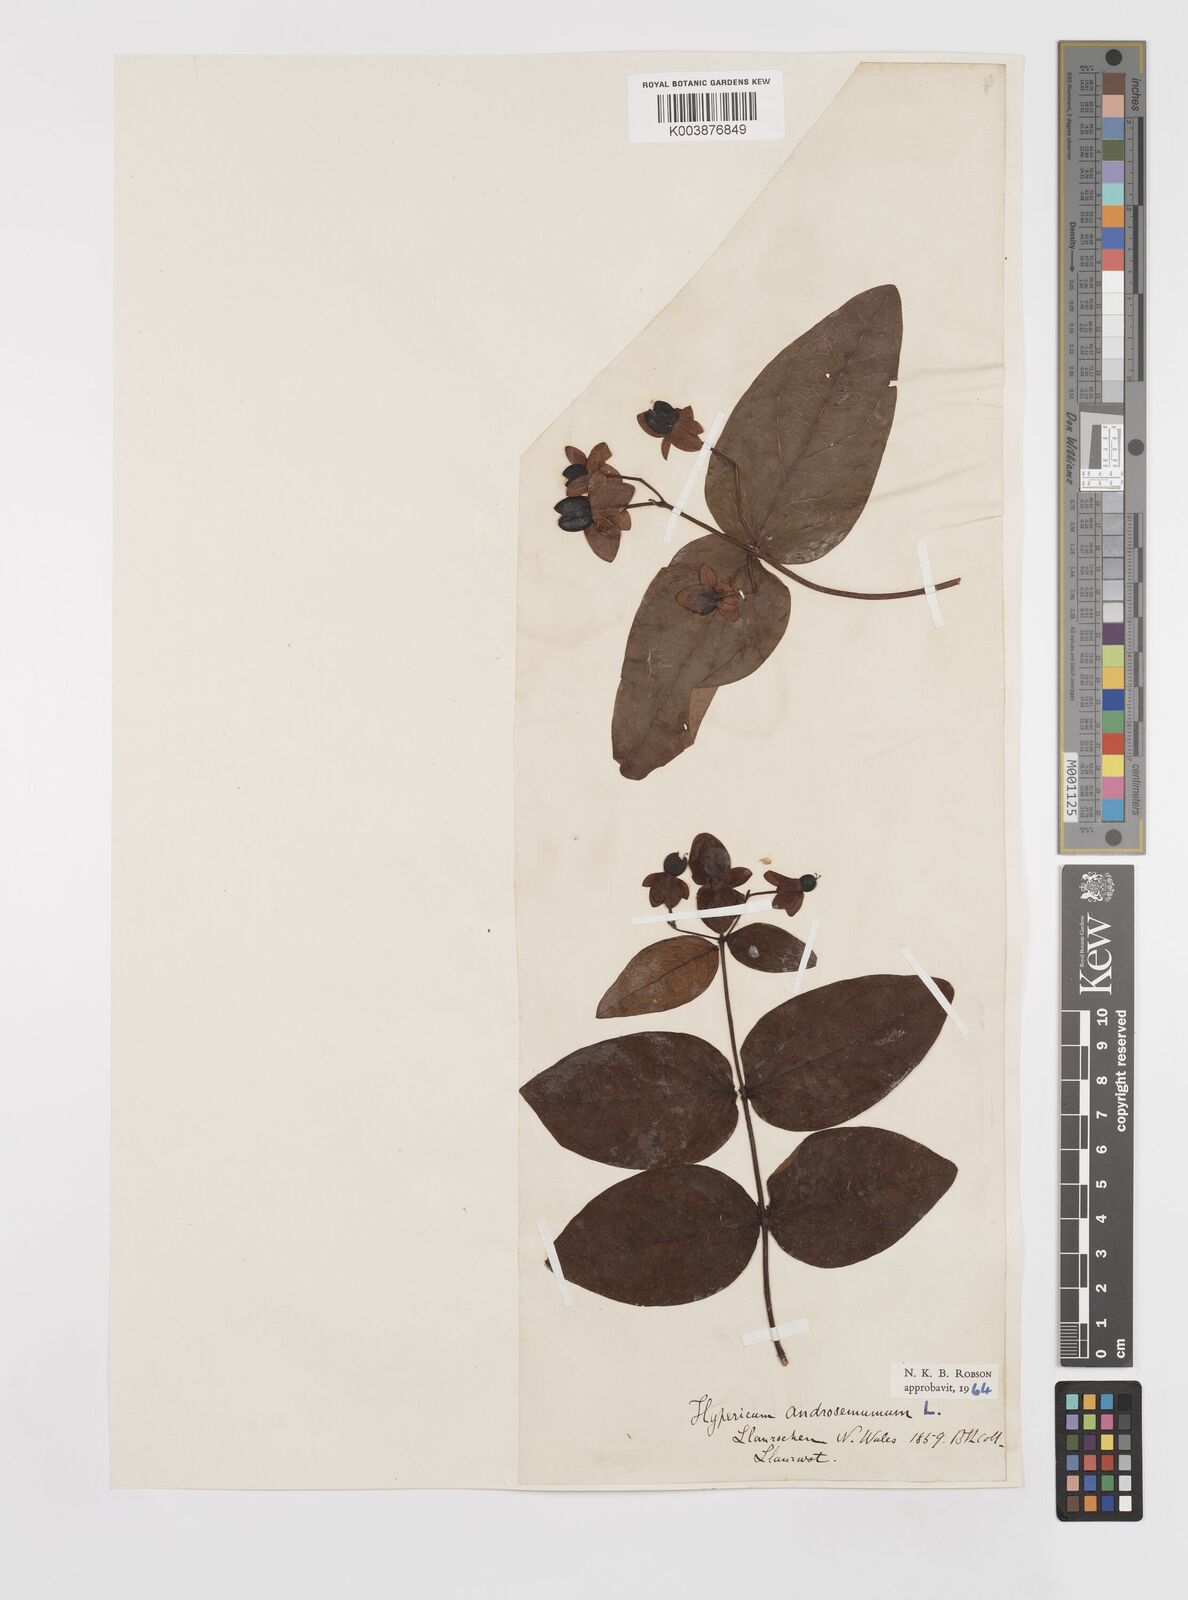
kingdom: Plantae
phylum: Tracheophyta
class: Magnoliopsida
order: Malpighiales
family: Hypericaceae
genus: Hypericum
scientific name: Hypericum androsaemum
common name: Sweet-amber
